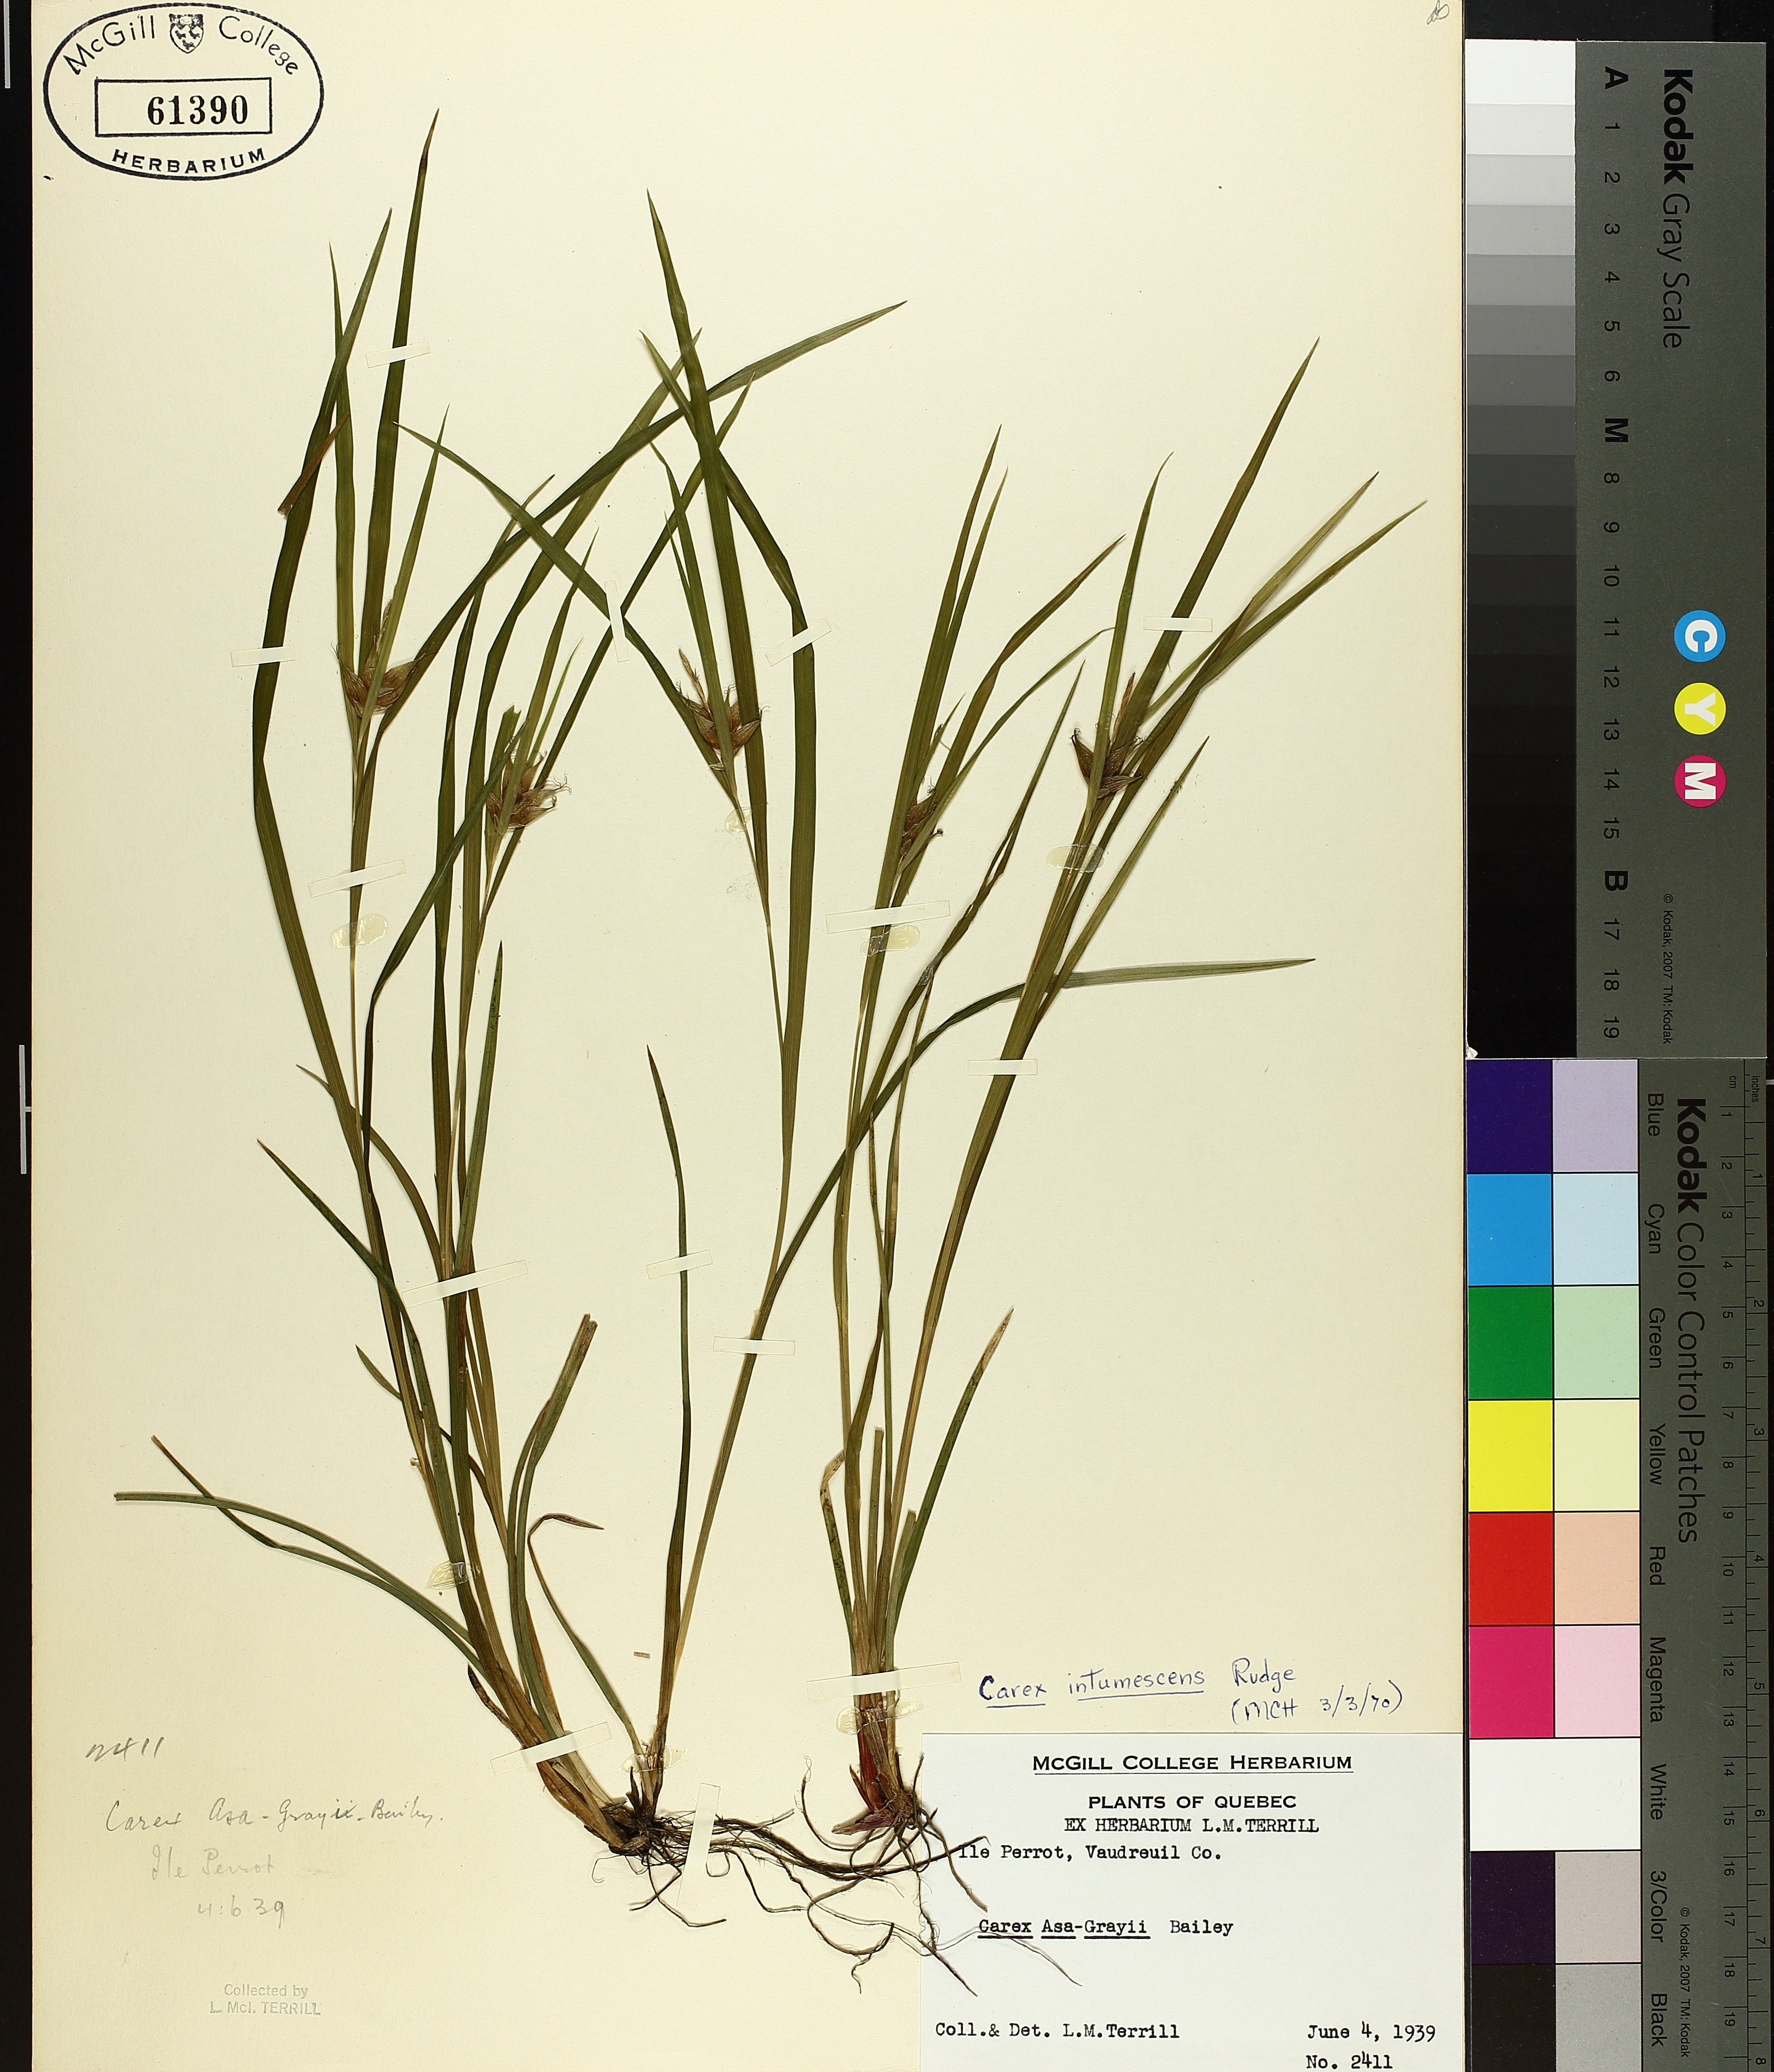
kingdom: Plantae
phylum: Tracheophyta
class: Liliopsida
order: Poales
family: Cyperaceae
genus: Carex
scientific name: Carex intumescens
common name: Greater bladder sedge
